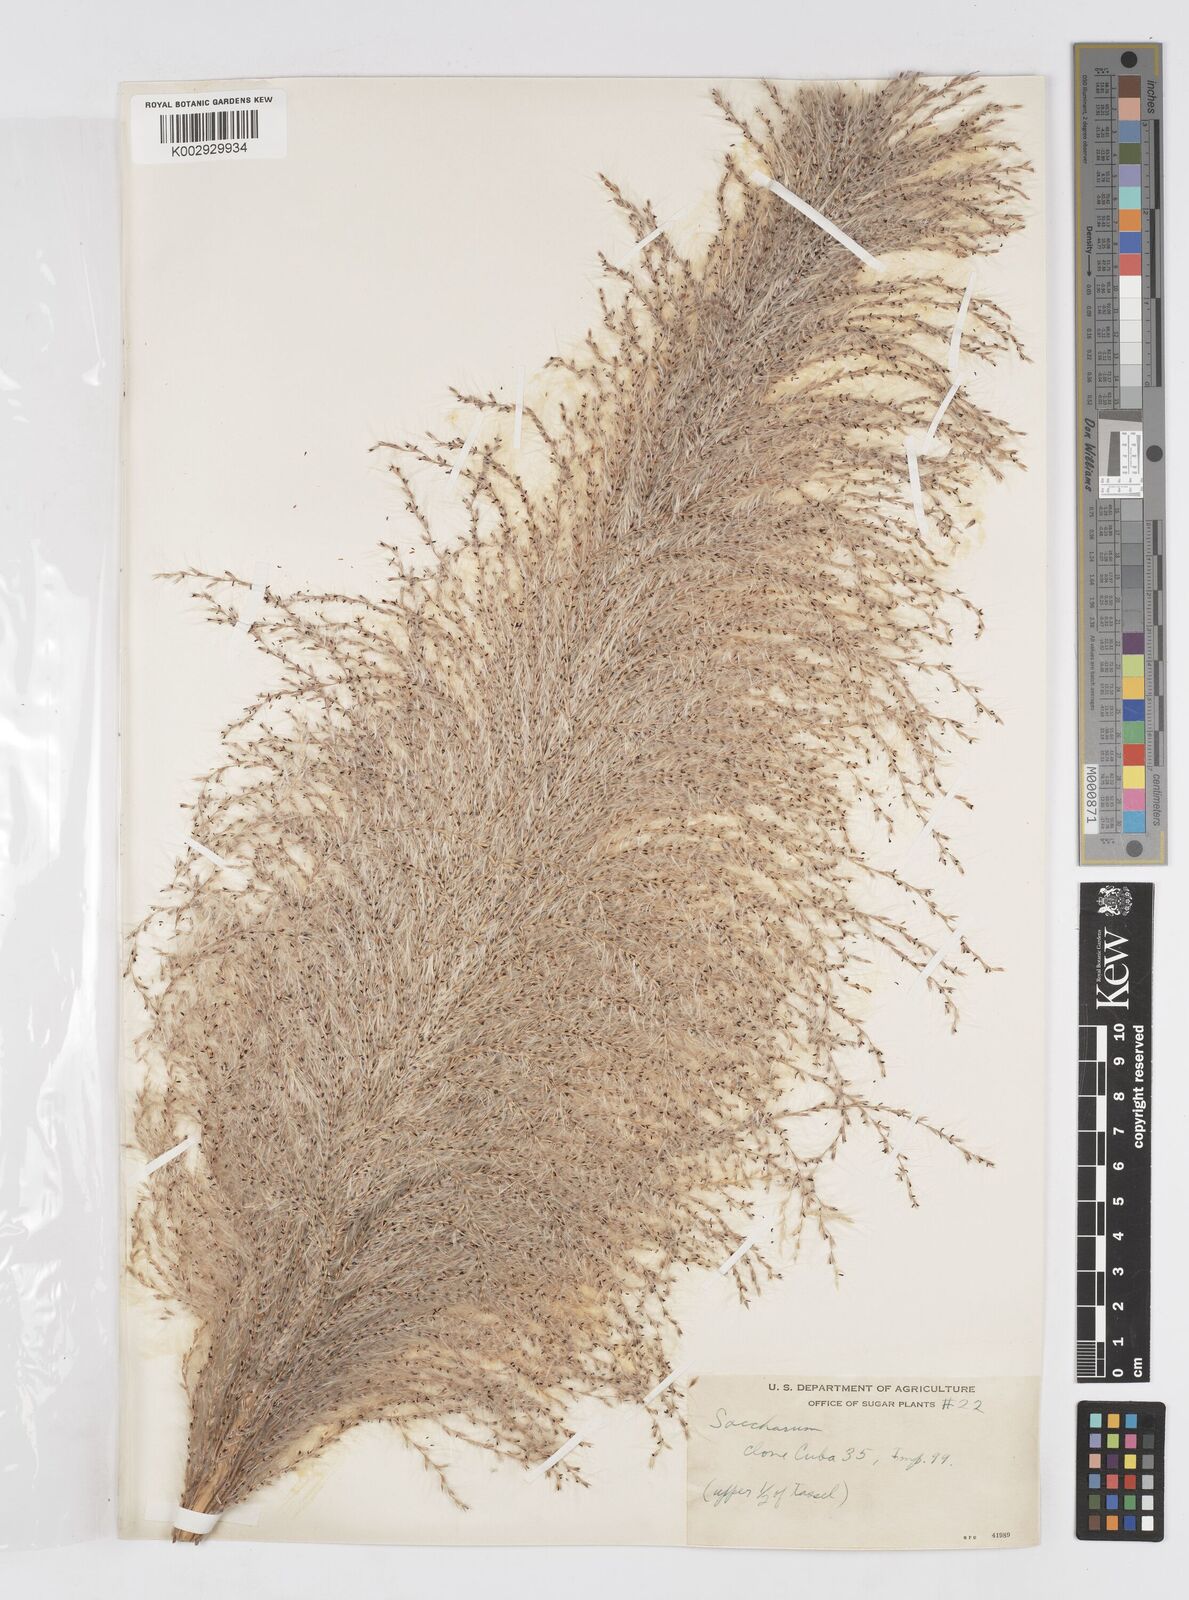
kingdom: Plantae
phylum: Tracheophyta
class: Liliopsida
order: Poales
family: Poaceae
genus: Saccharum
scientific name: Saccharum officinarum
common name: Sugarcane
